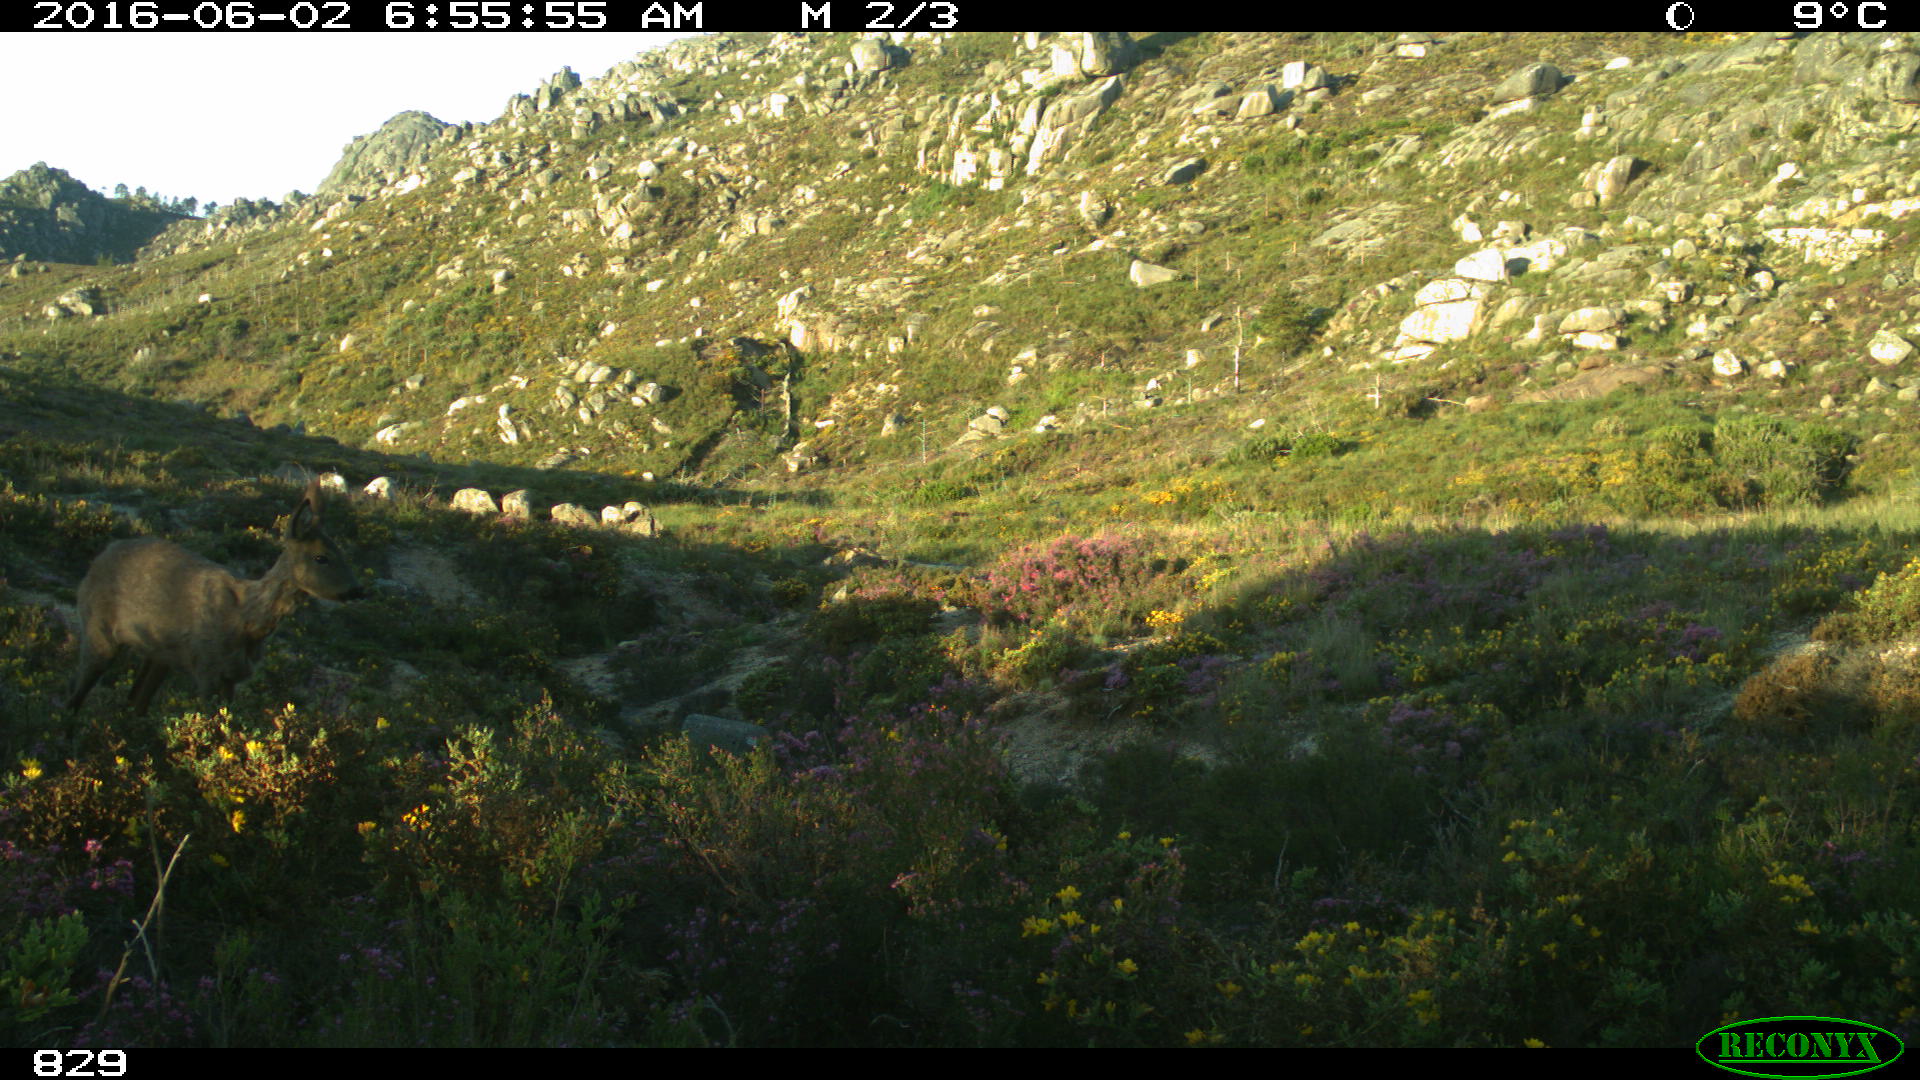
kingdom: Animalia
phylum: Chordata
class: Mammalia
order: Artiodactyla
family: Cervidae
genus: Capreolus
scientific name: Capreolus capreolus
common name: Western roe deer
